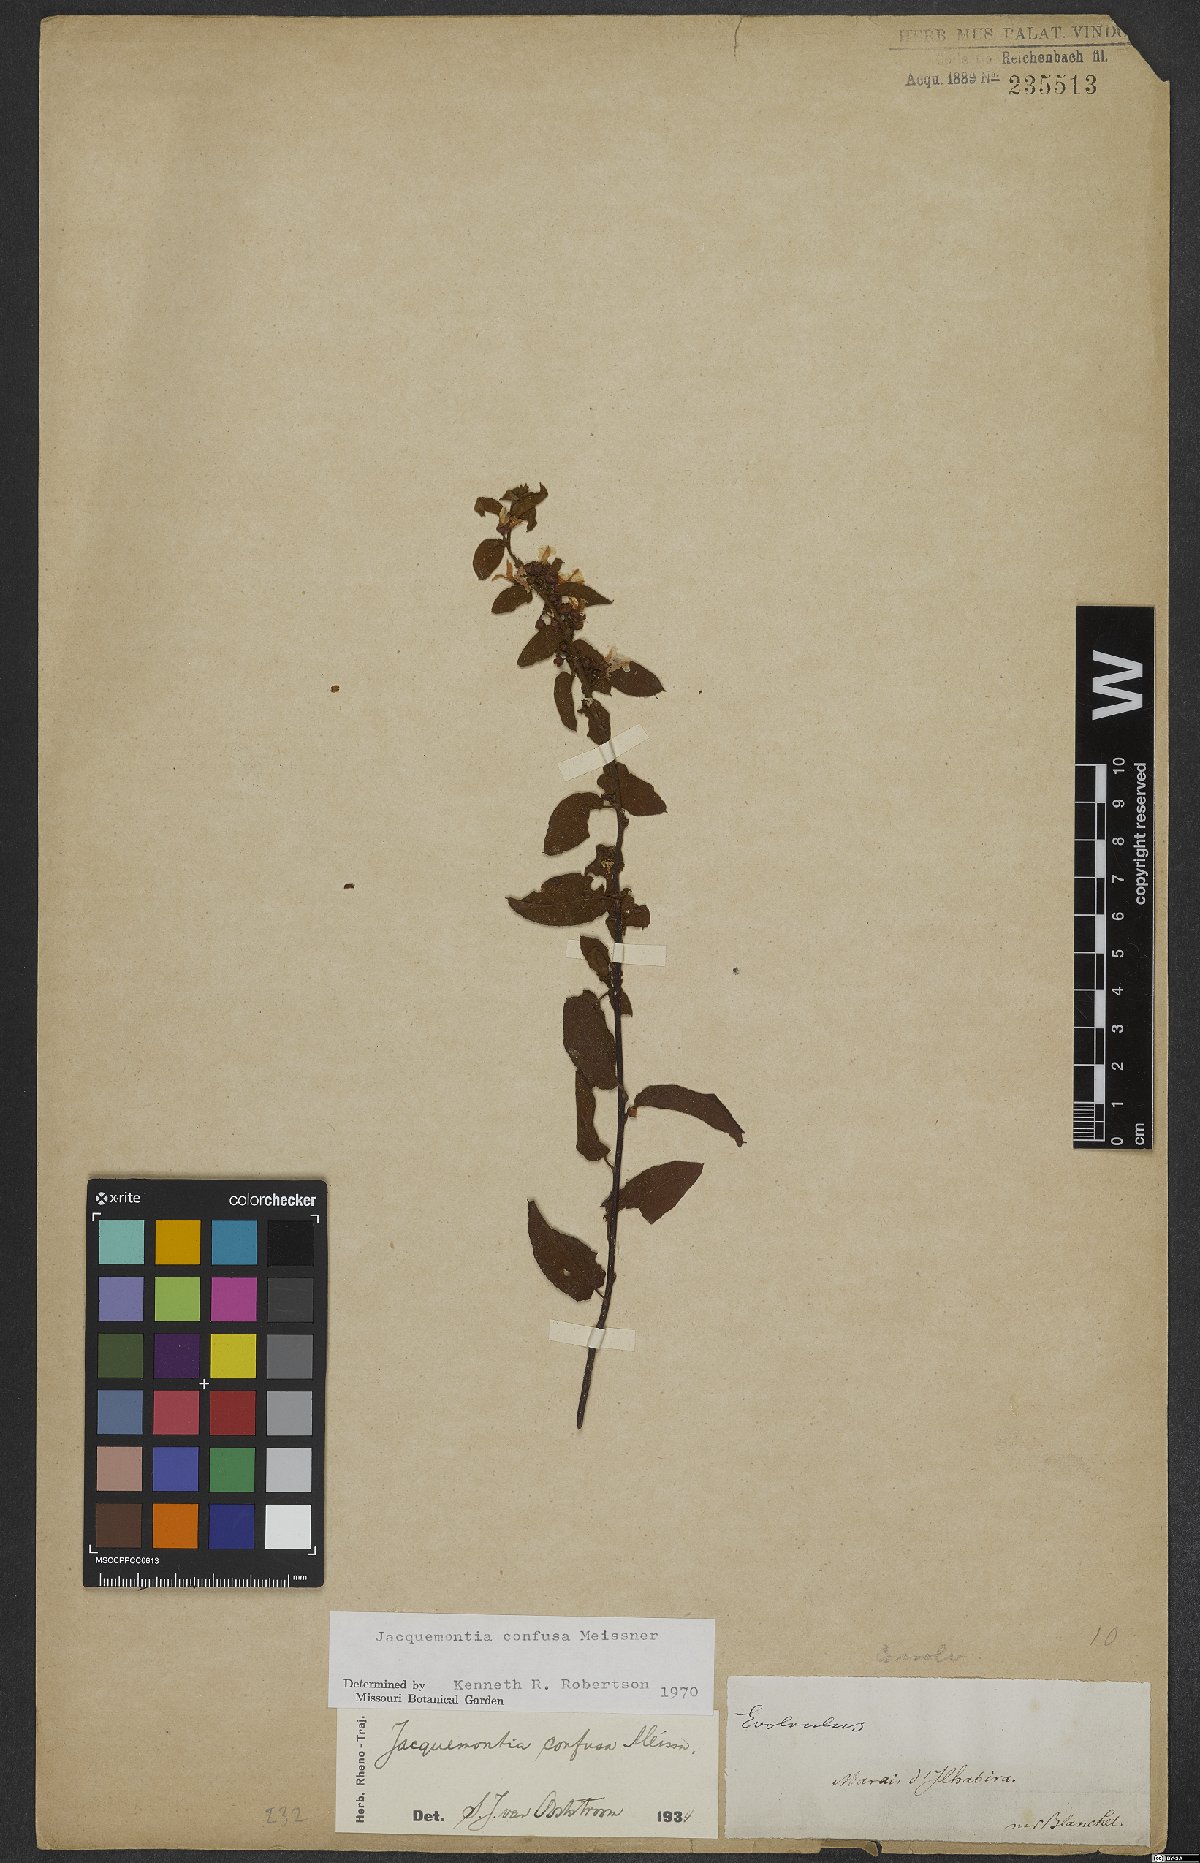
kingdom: Plantae
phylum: Tracheophyta
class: Magnoliopsida
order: Solanales
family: Convolvulaceae
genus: Jacquemontia
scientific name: Jacquemontia nodiflora
